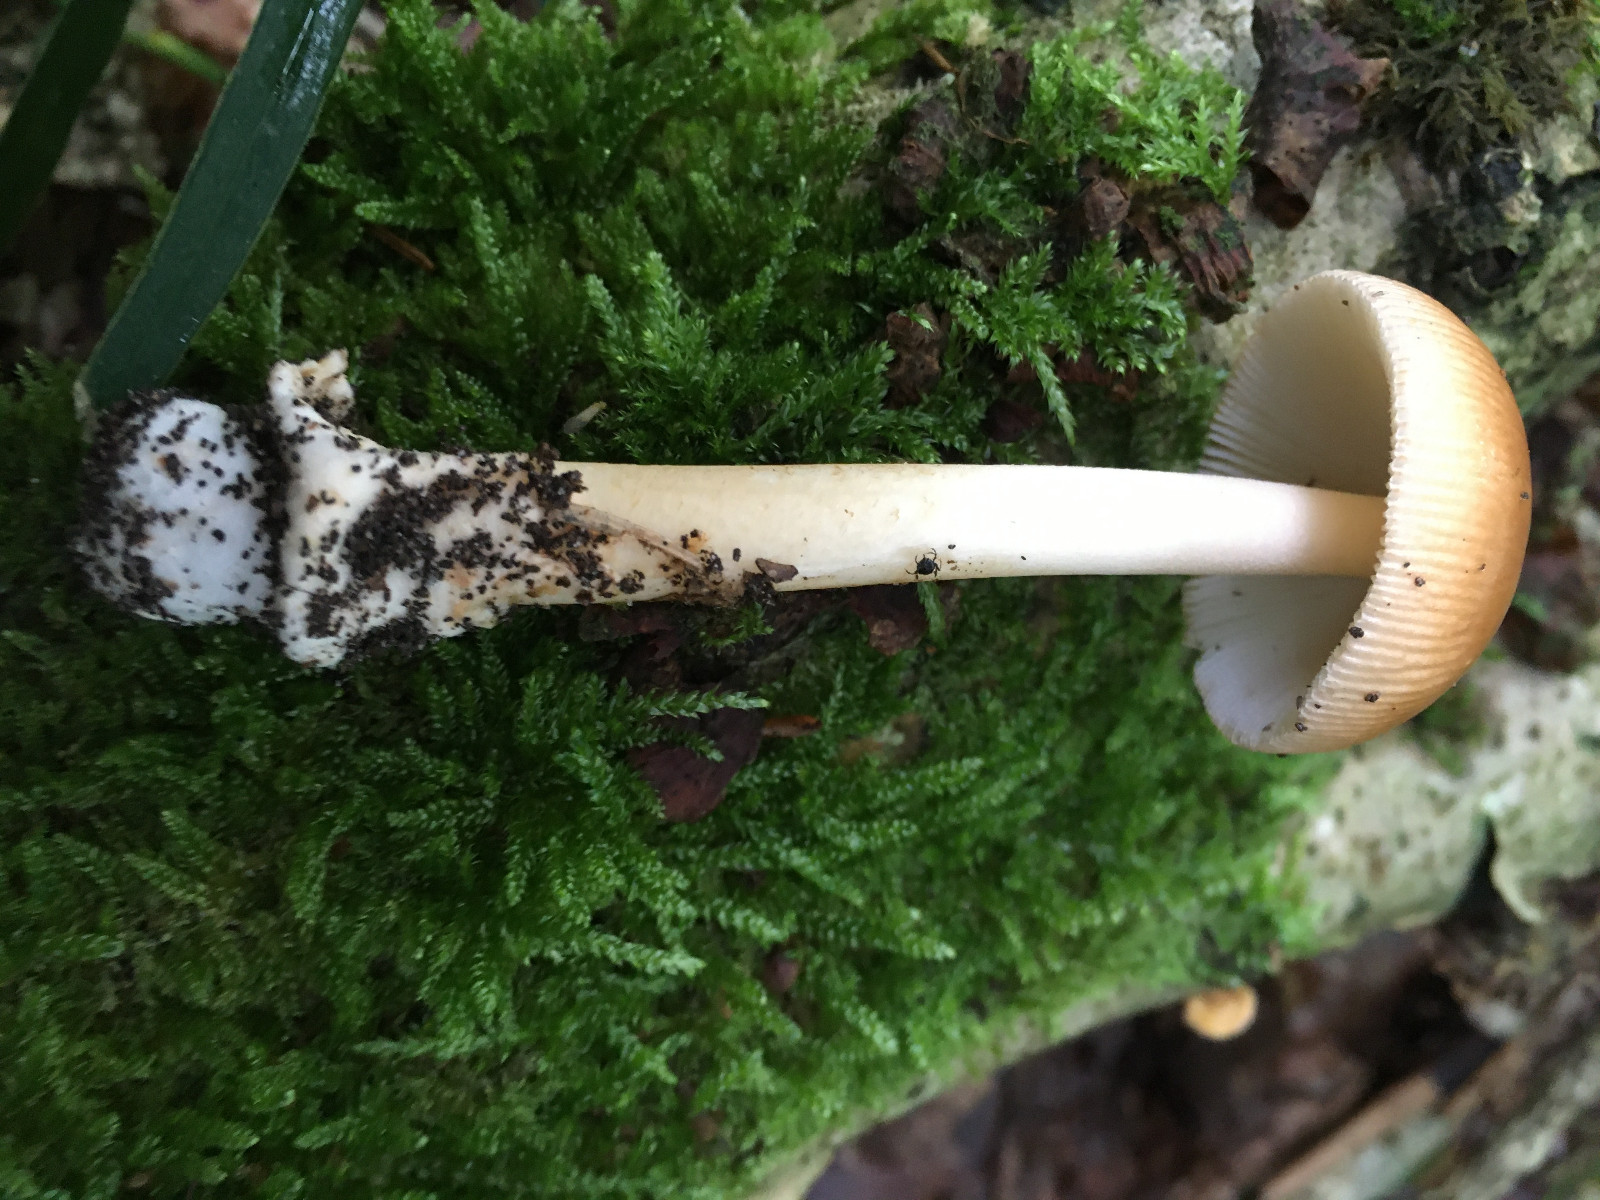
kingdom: Fungi
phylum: Basidiomycota
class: Agaricomycetes
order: Agaricales
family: Amanitaceae
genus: Amanita
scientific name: Amanita fulva
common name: brun kam-fluesvamp
